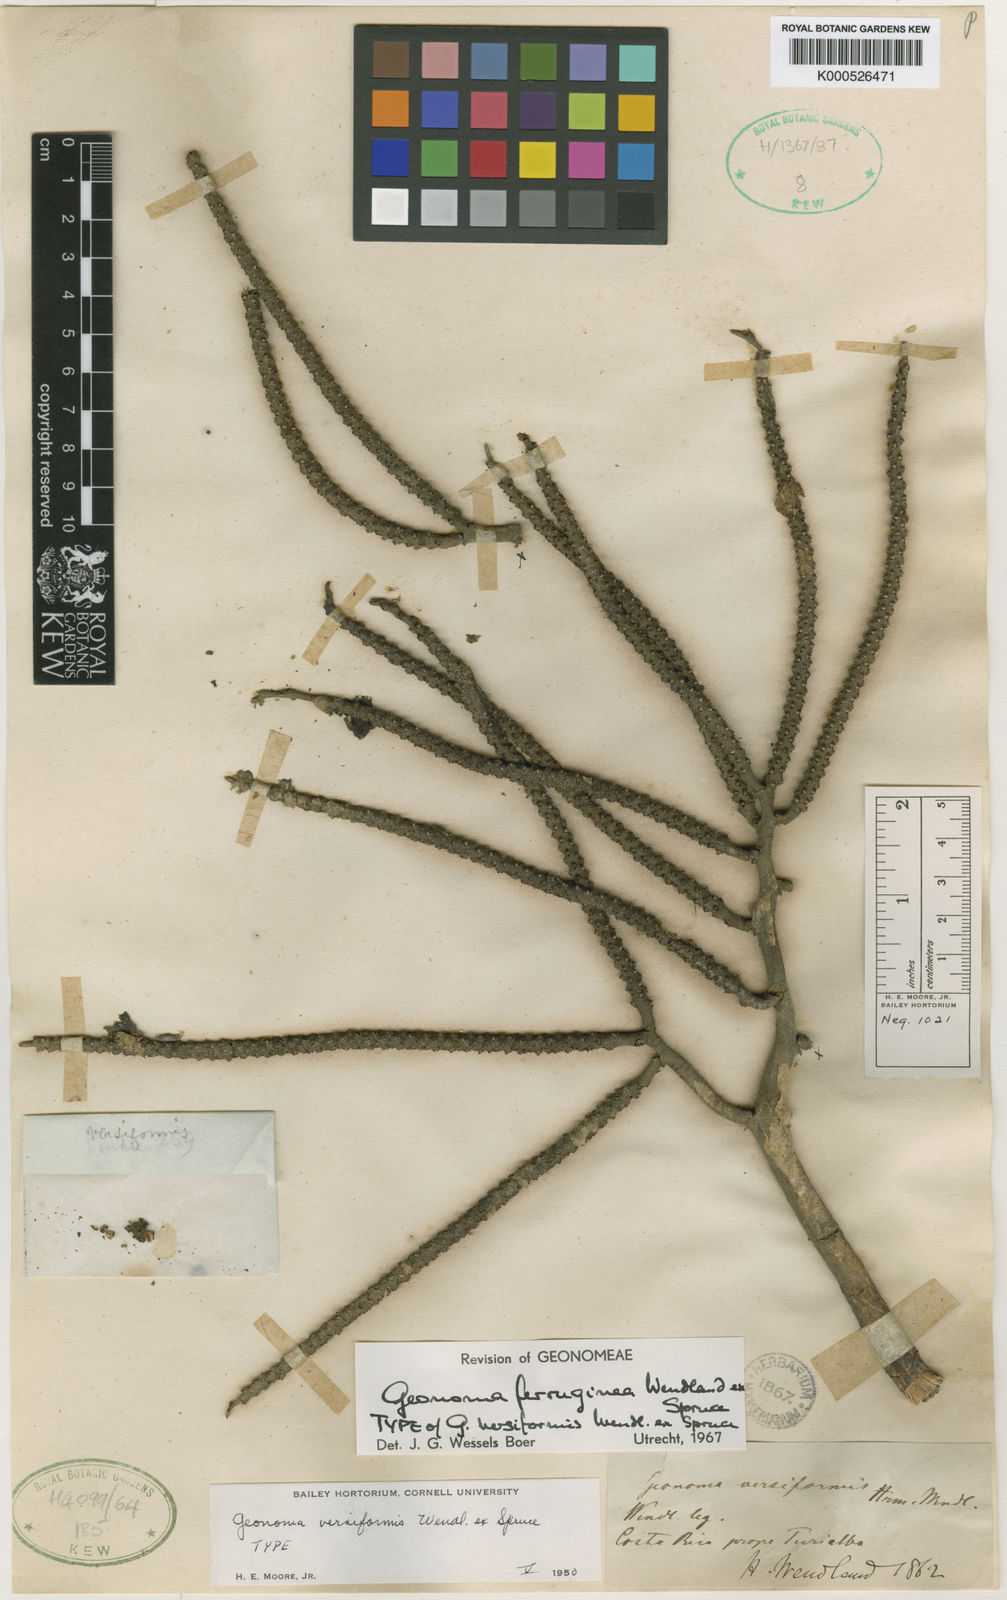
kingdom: Plantae
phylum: Tracheophyta
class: Liliopsida
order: Arecales
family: Arecaceae
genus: Geonoma
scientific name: Geonoma ferruginea
